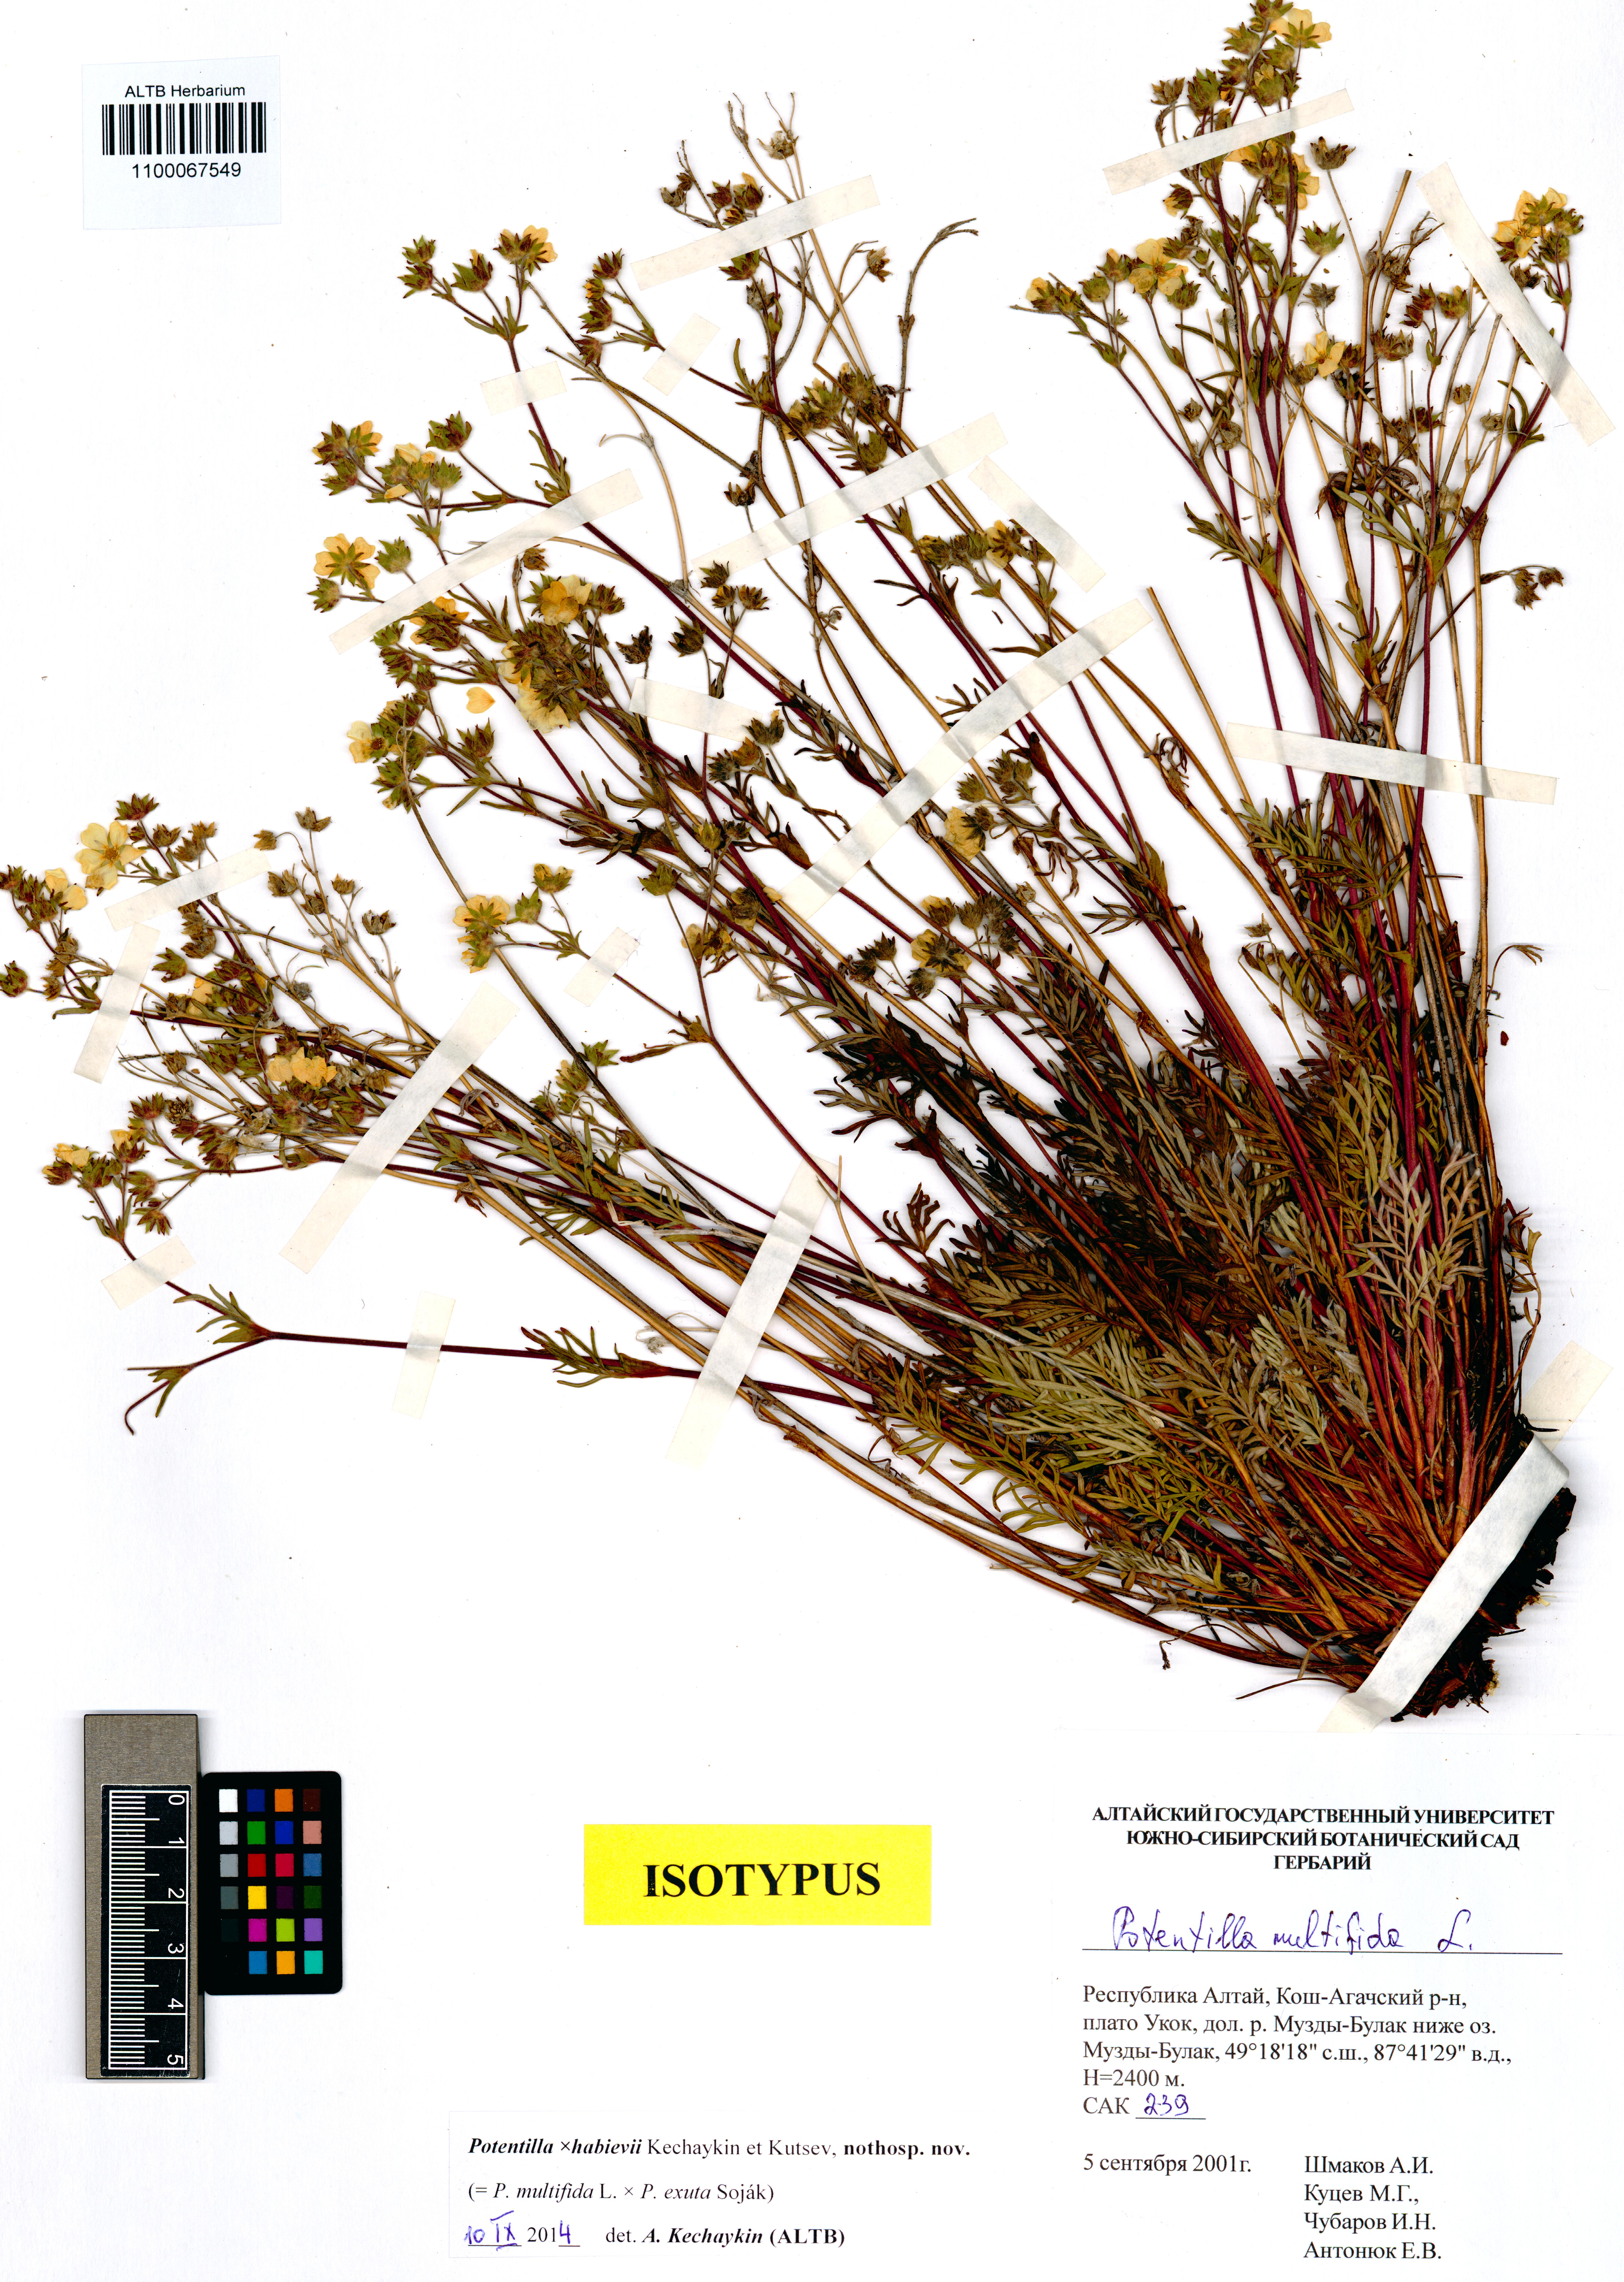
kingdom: Plantae
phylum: Tracheophyta
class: Magnoliopsida
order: Rosales
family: Rosaceae
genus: Potentilla
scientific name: Potentilla habievii
